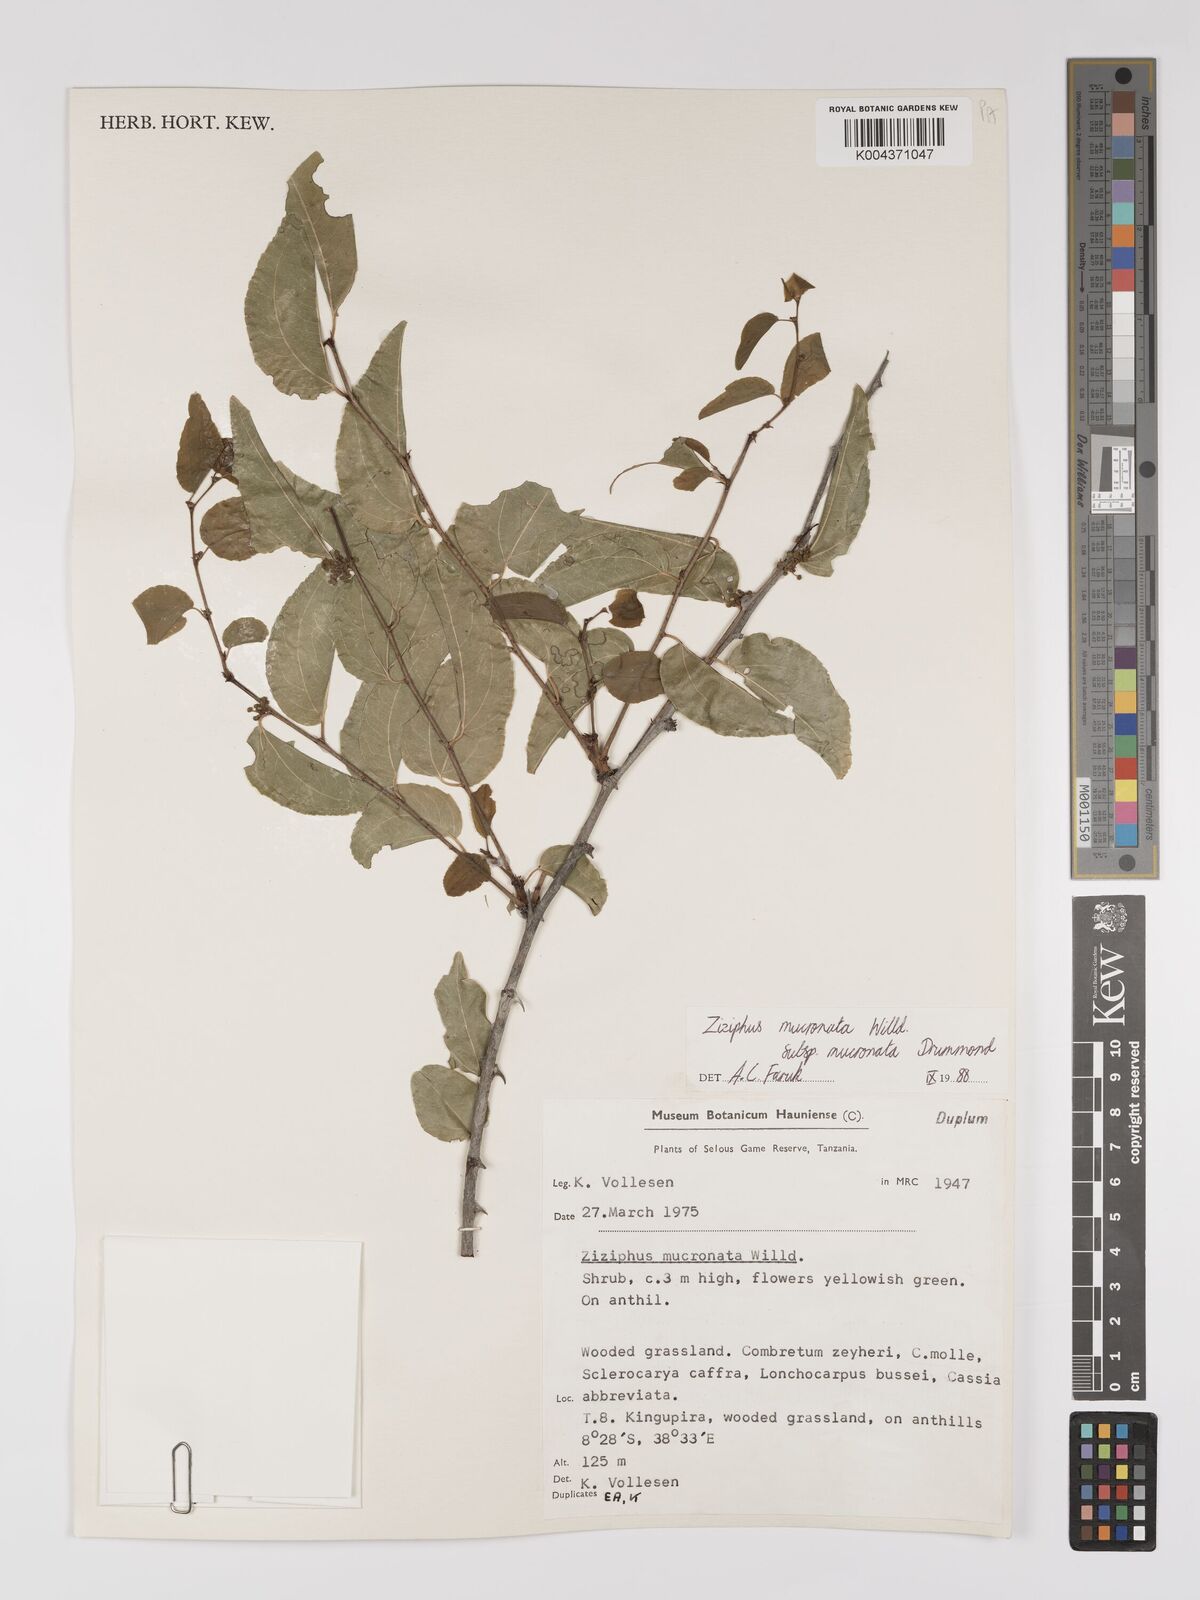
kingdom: Plantae
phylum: Tracheophyta
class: Magnoliopsida
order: Rosales
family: Rhamnaceae
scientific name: Rhamnaceae
